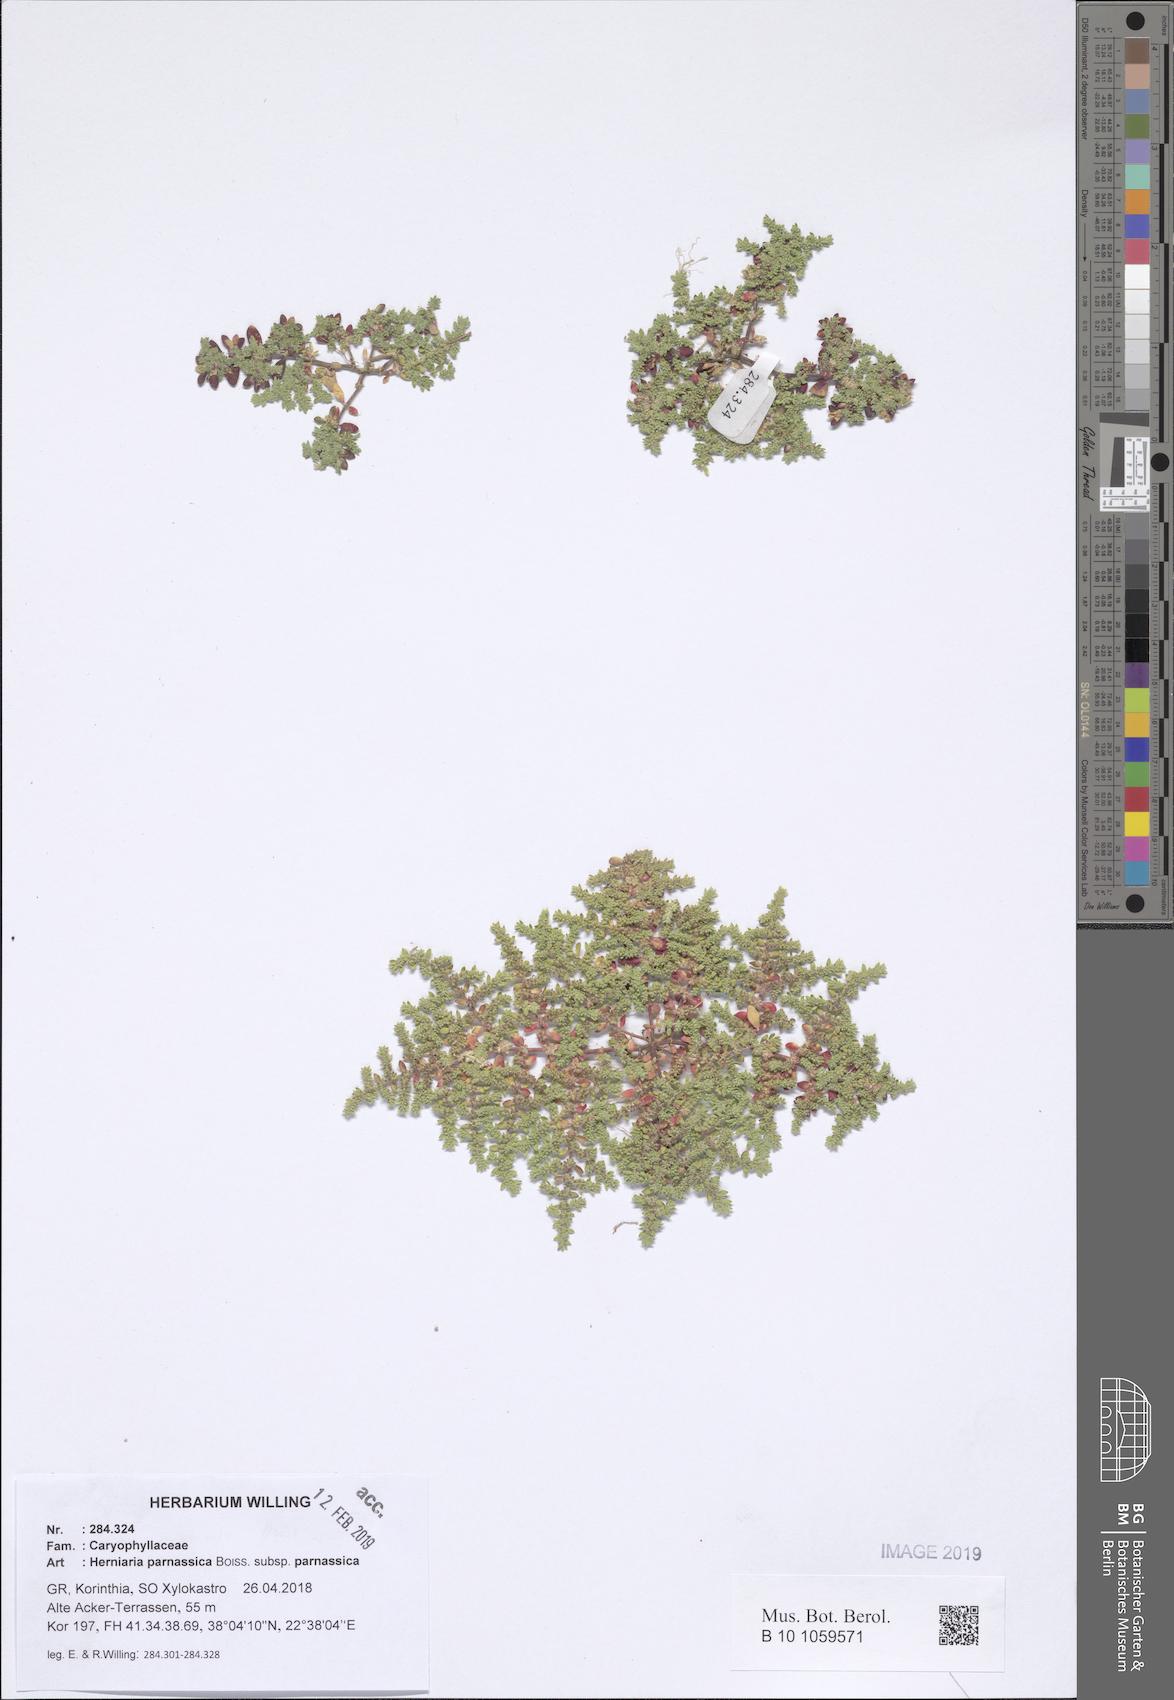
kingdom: Plantae
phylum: Tracheophyta
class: Magnoliopsida
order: Caryophyllales
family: Caryophyllaceae
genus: Herniaria
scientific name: Herniaria parnassica
